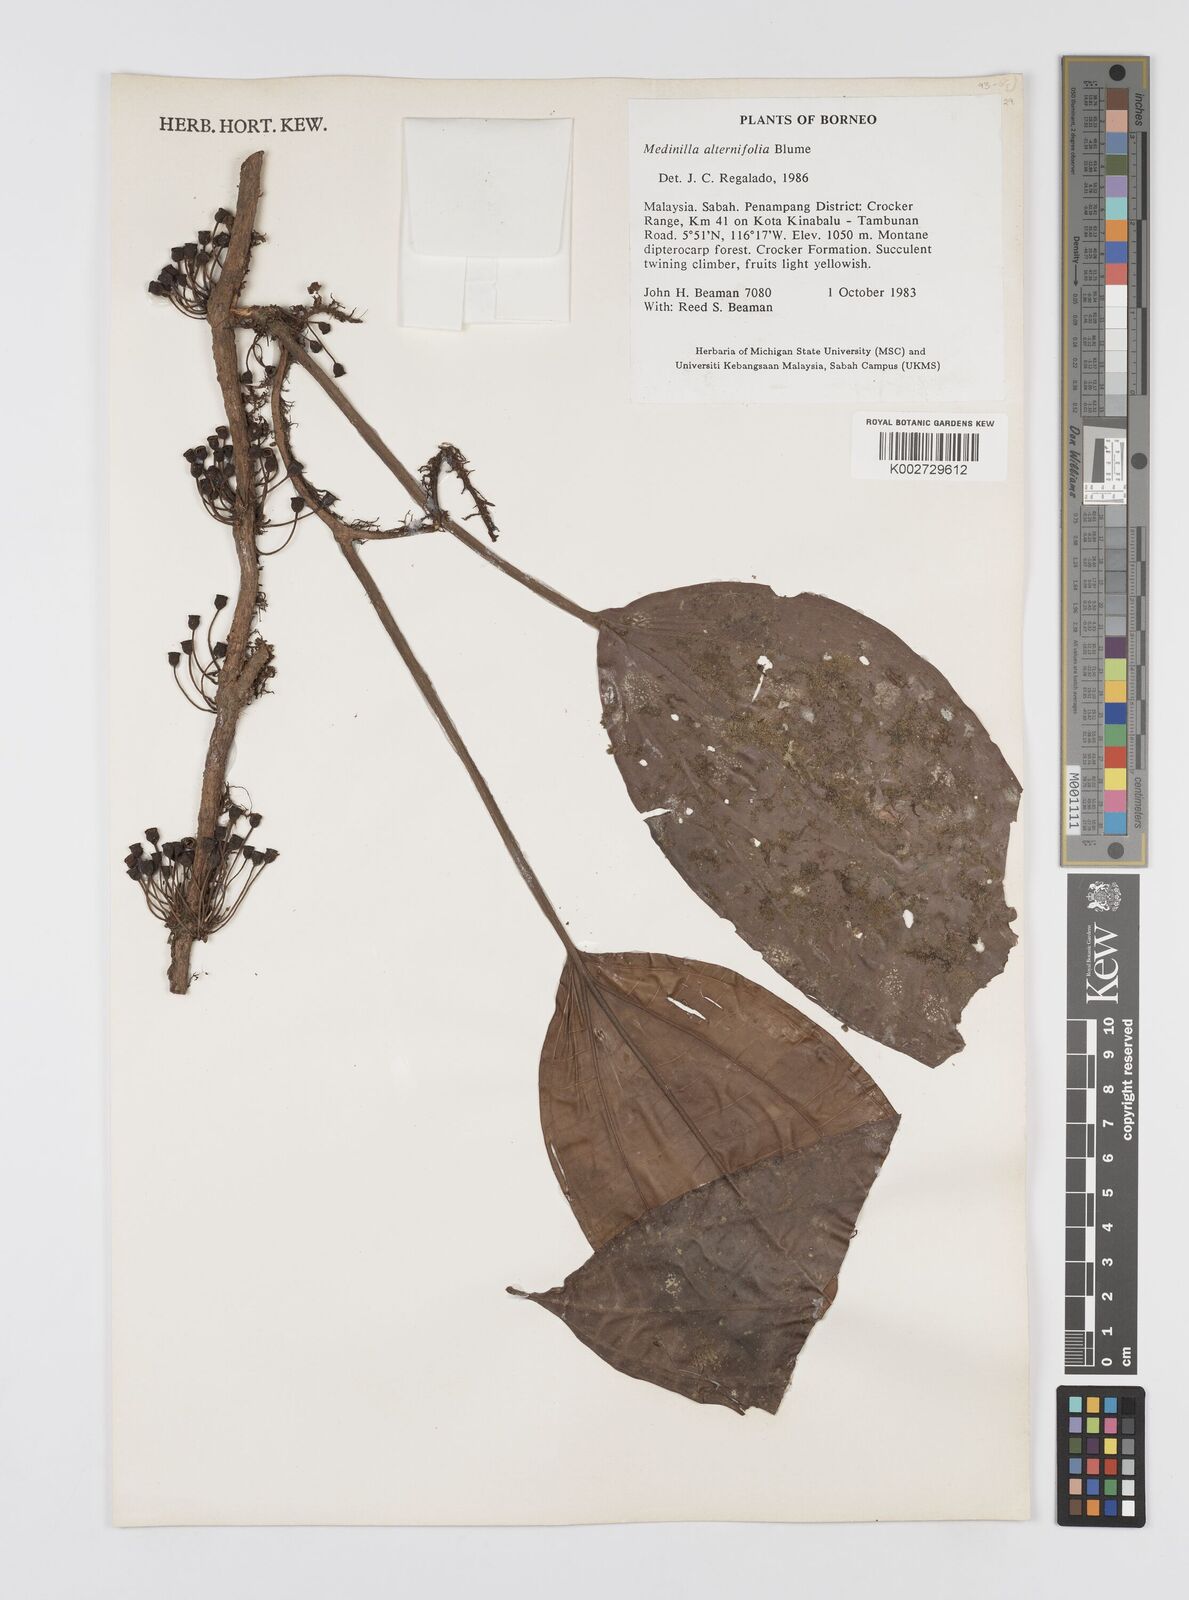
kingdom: Plantae
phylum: Tracheophyta
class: Magnoliopsida
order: Myrtales
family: Melastomataceae
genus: Heteroblemma
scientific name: Heteroblemma alternifolium
